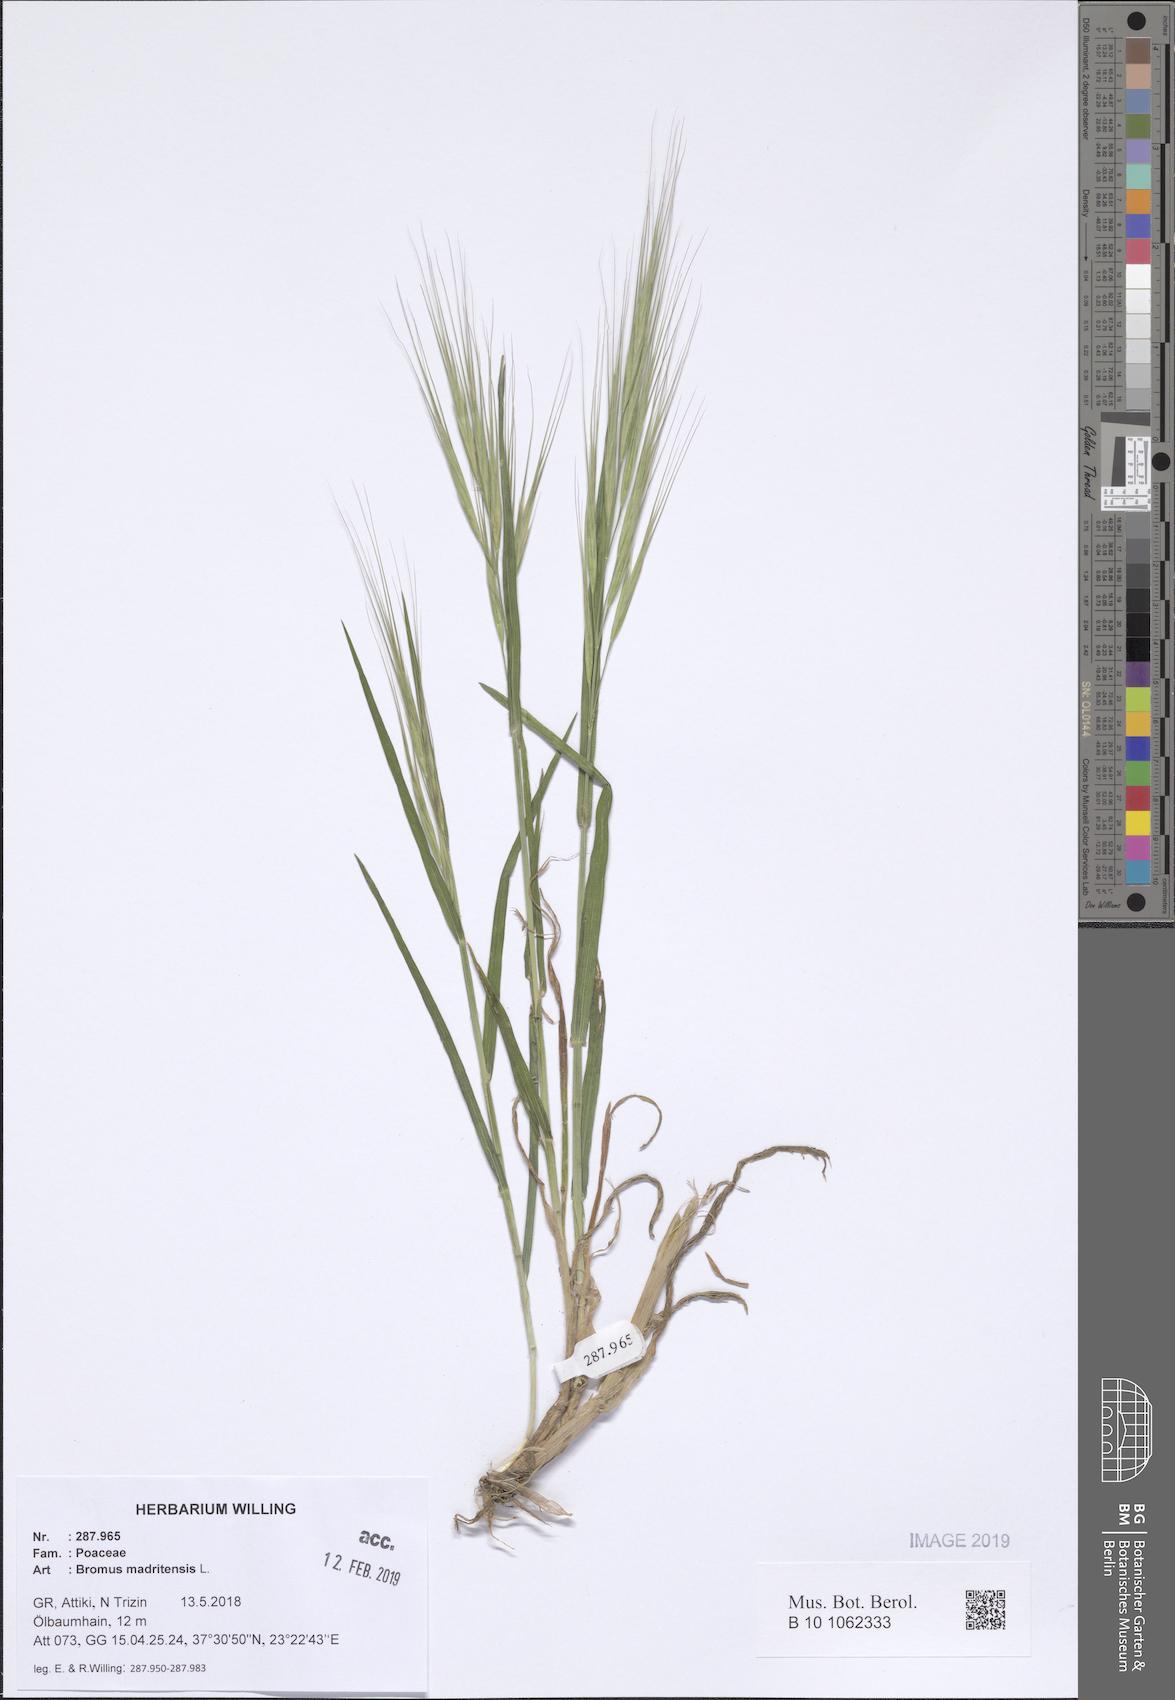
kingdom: Plantae
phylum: Tracheophyta
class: Liliopsida
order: Poales
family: Poaceae
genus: Bromus
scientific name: Bromus madritensis
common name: Compact brome
